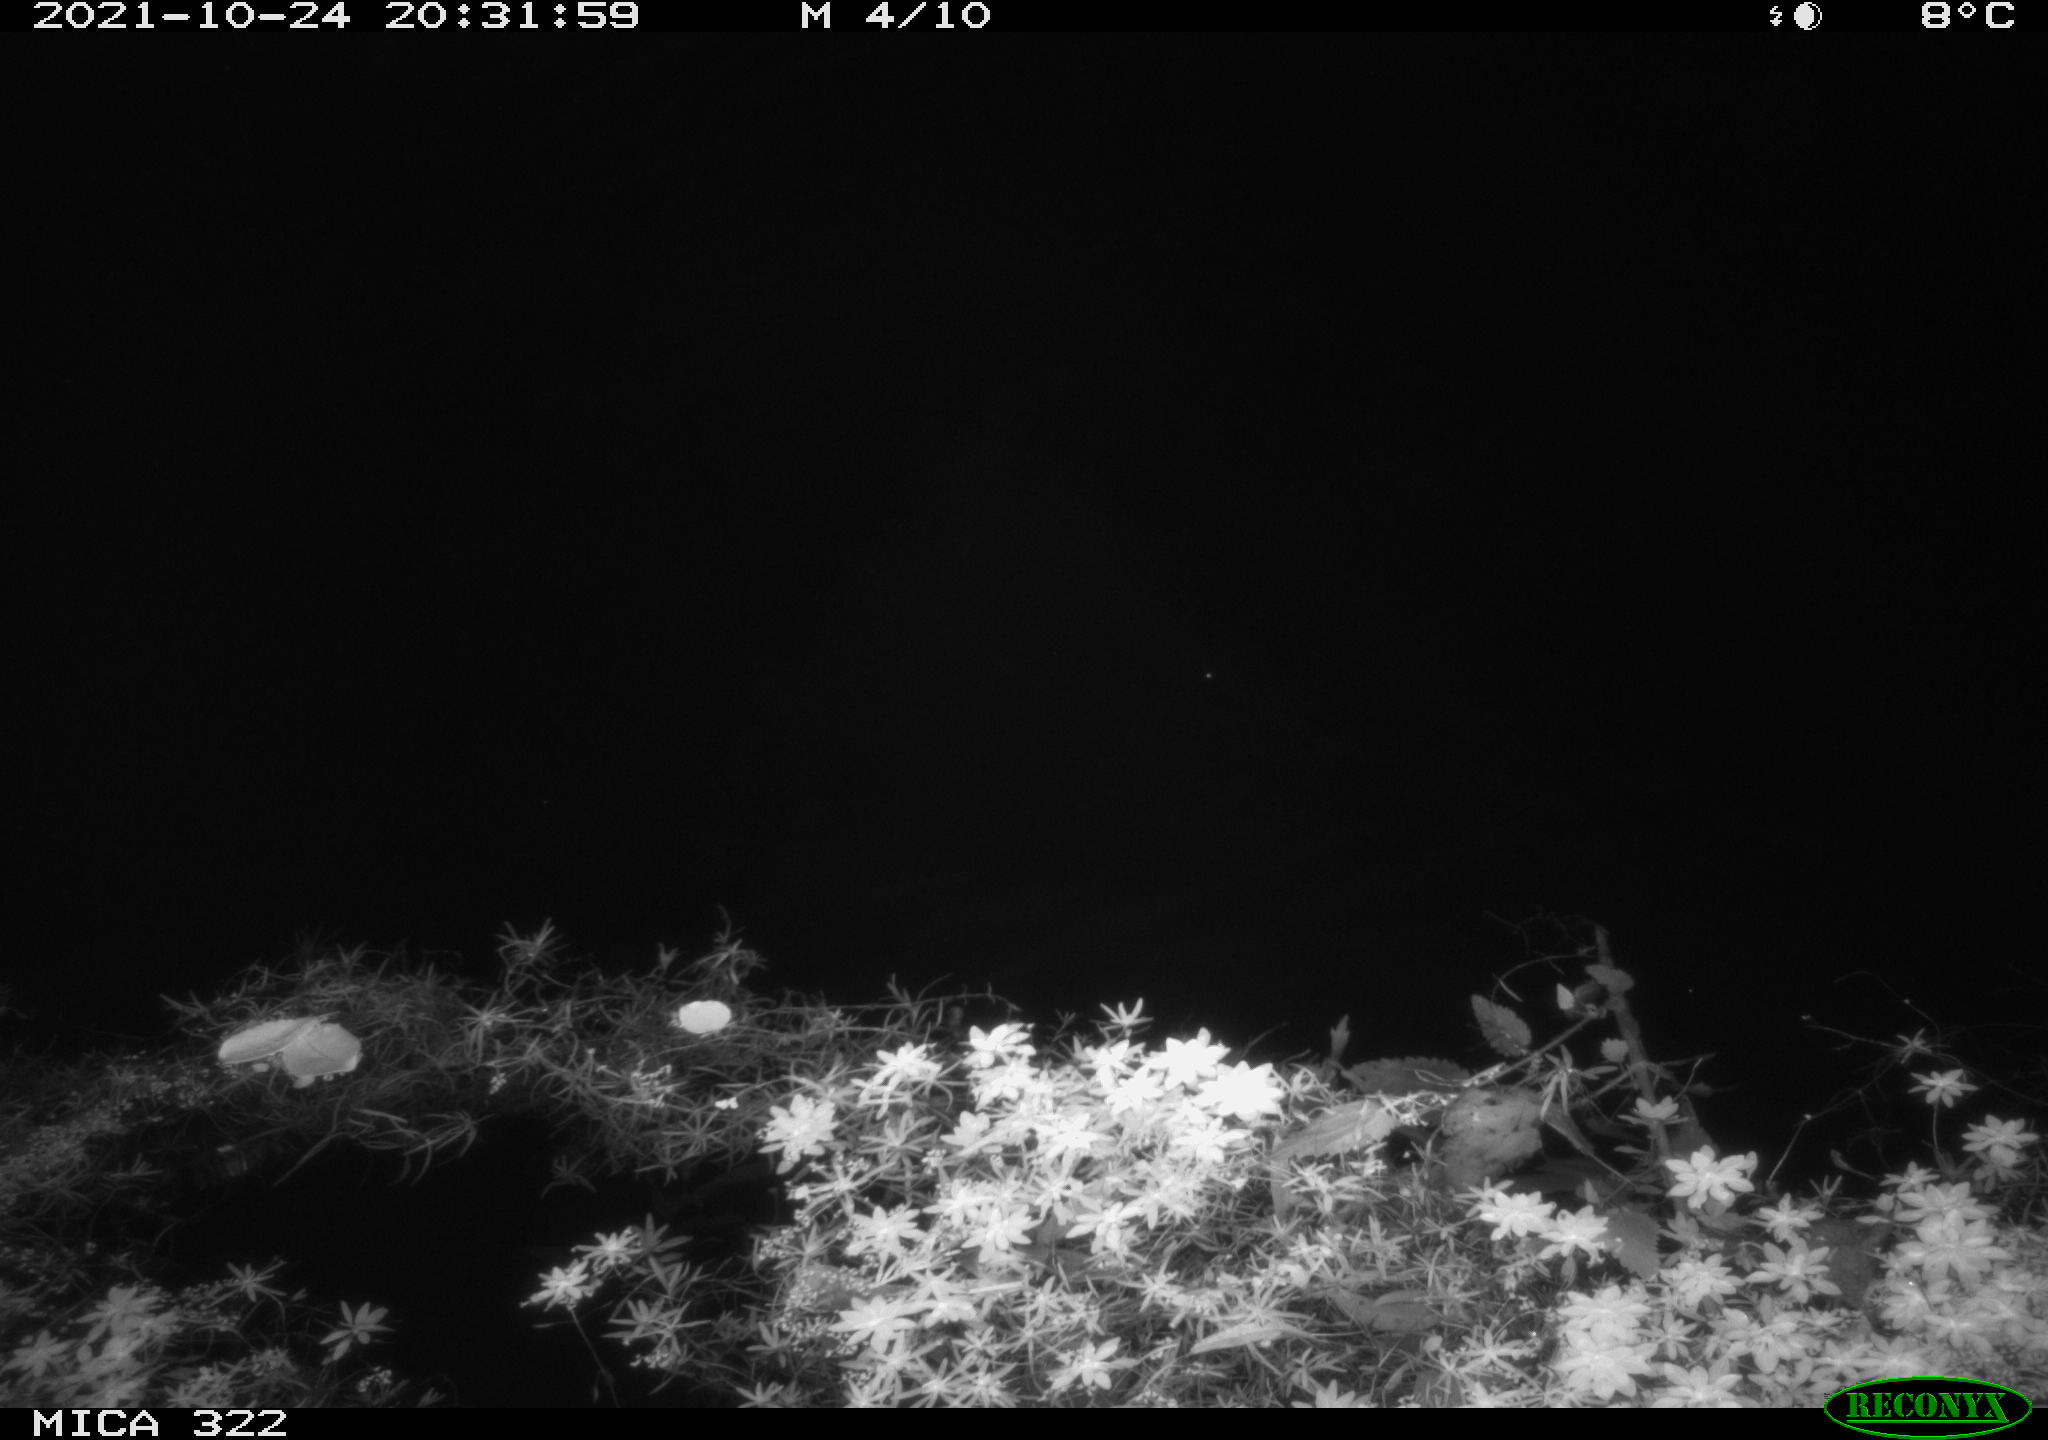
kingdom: Animalia
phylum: Chordata
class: Mammalia
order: Rodentia
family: Muridae
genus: Rattus
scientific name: Rattus norvegicus
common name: Brown rat
